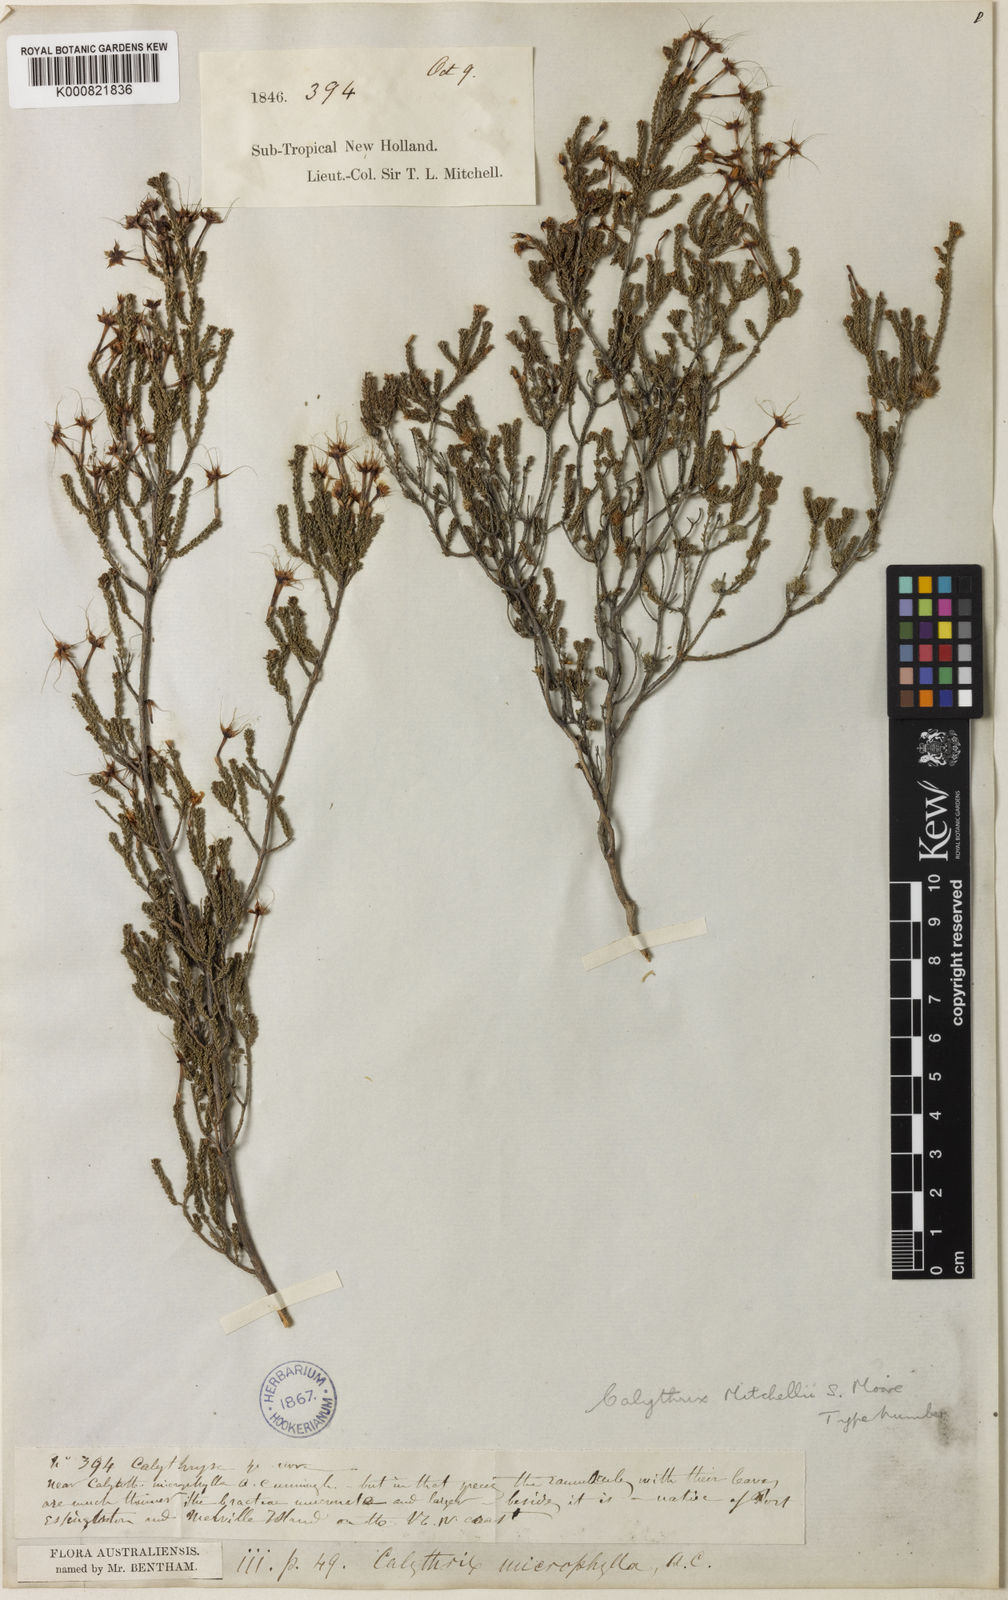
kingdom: Plantae
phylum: Tracheophyta
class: Magnoliopsida
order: Myrtales
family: Myrtaceae
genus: Calytrix
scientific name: Calytrix tetragona
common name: Common fringe myrtle
